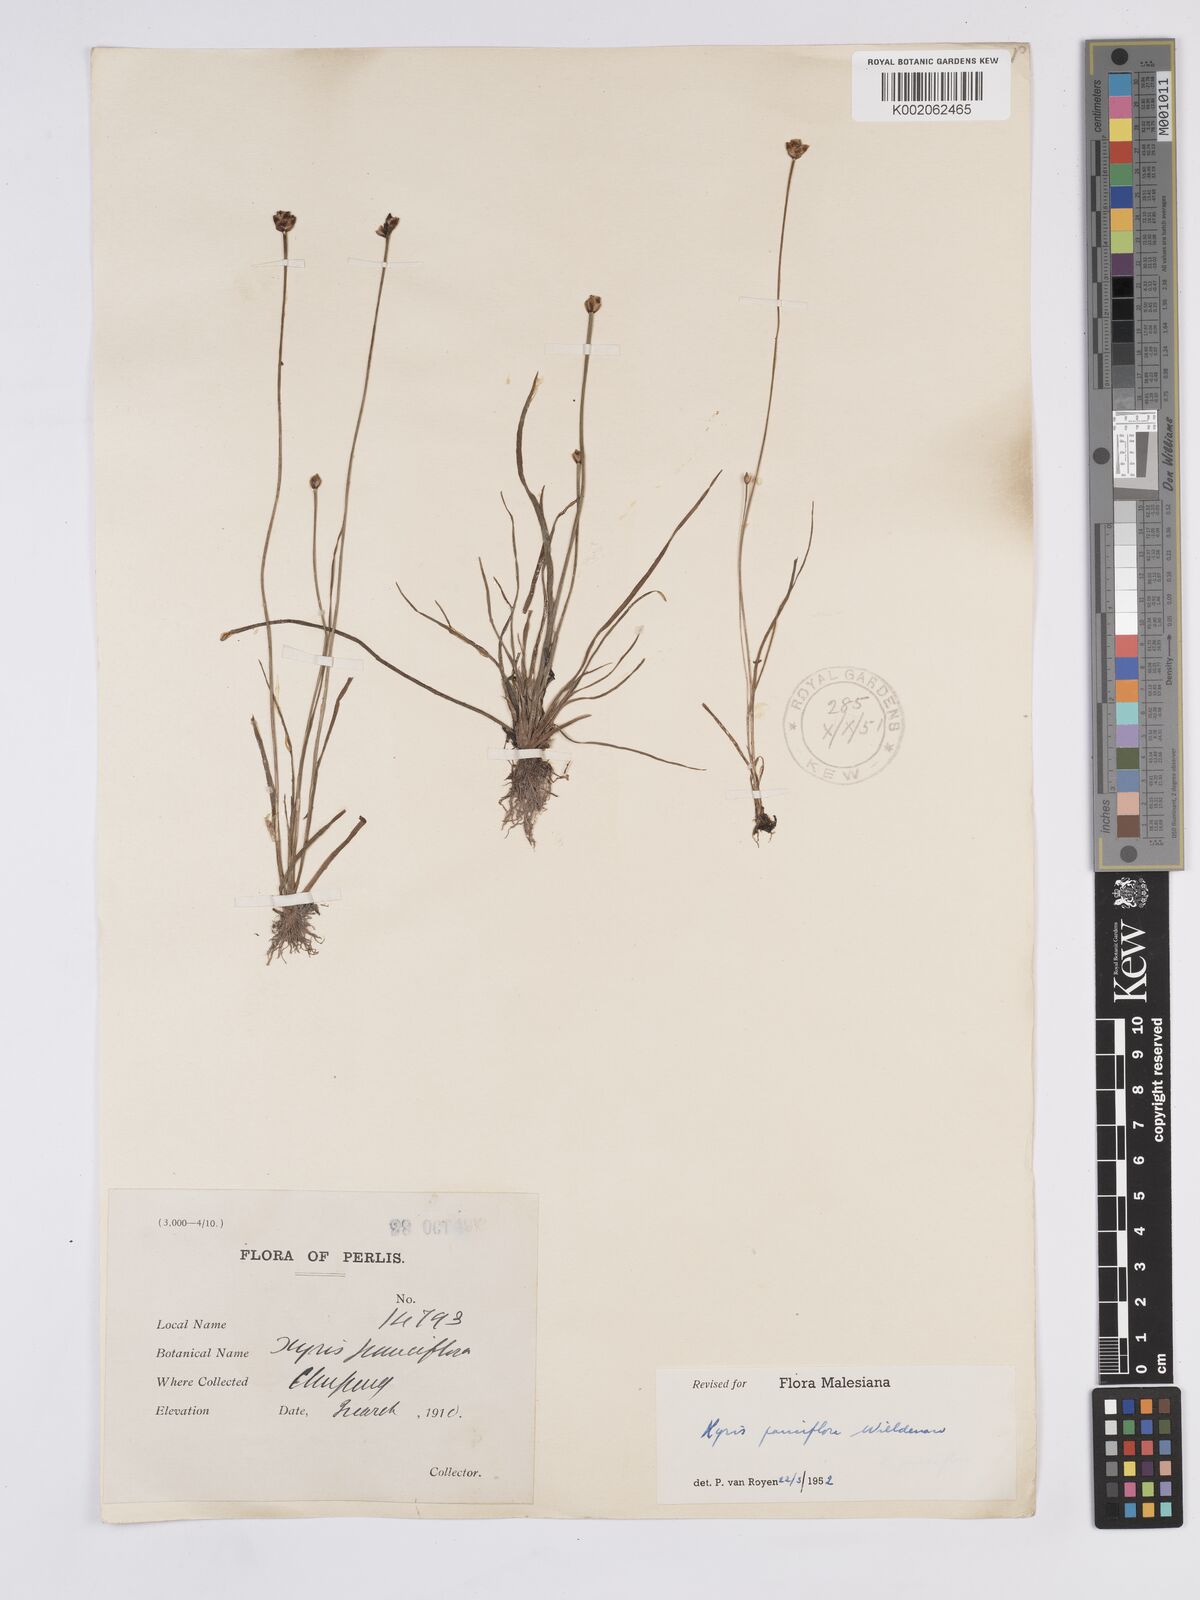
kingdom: Plantae
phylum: Tracheophyta
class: Liliopsida
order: Poales
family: Xyridaceae
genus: Xyris
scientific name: Xyris pauciflora
